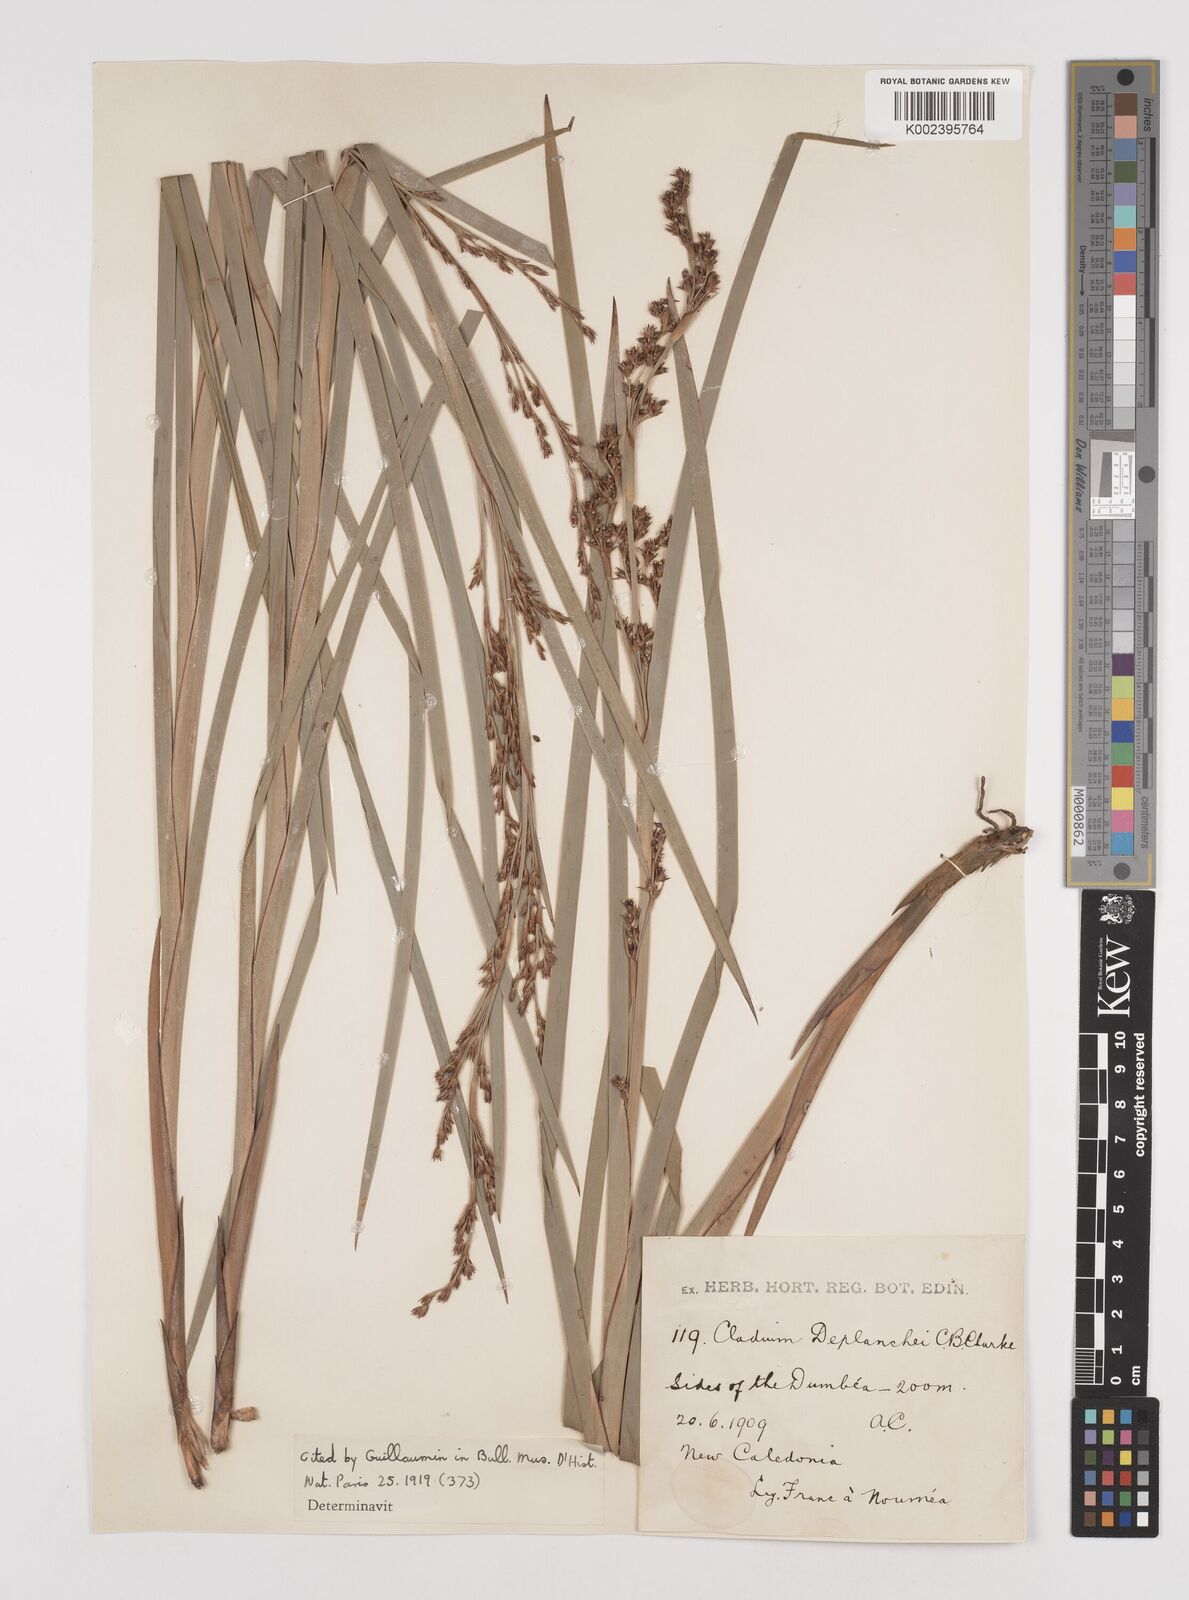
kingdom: Plantae
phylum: Tracheophyta
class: Liliopsida
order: Poales
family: Cyperaceae
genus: Machaerina
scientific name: Machaerina deplanchei
